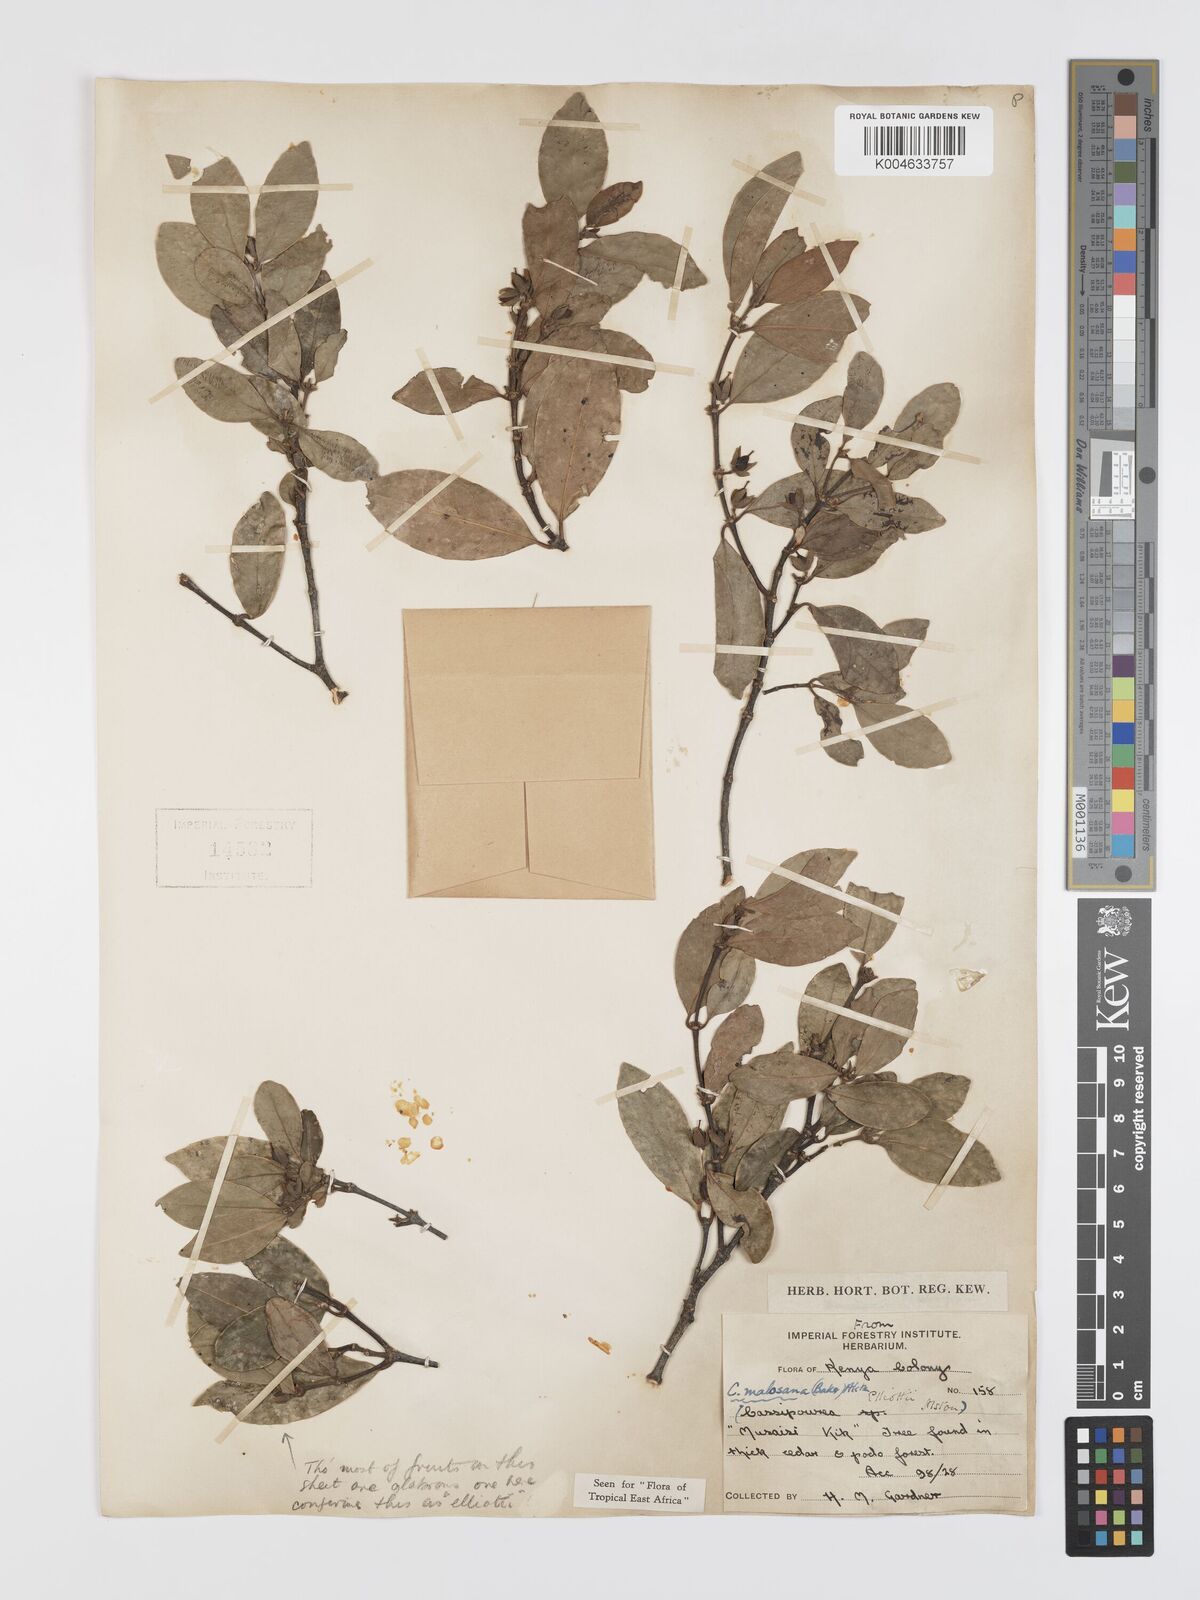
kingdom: Plantae
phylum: Tracheophyta
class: Magnoliopsida
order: Malpighiales
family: Rhizophoraceae
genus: Cassipourea
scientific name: Cassipourea
